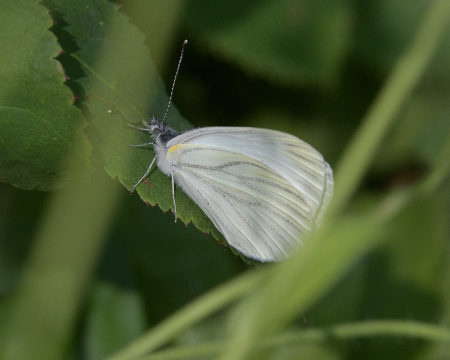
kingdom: Animalia
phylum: Arthropoda
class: Insecta
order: Lepidoptera
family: Pieridae
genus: Pieris
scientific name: Pieris oleracea
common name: Mustard White
